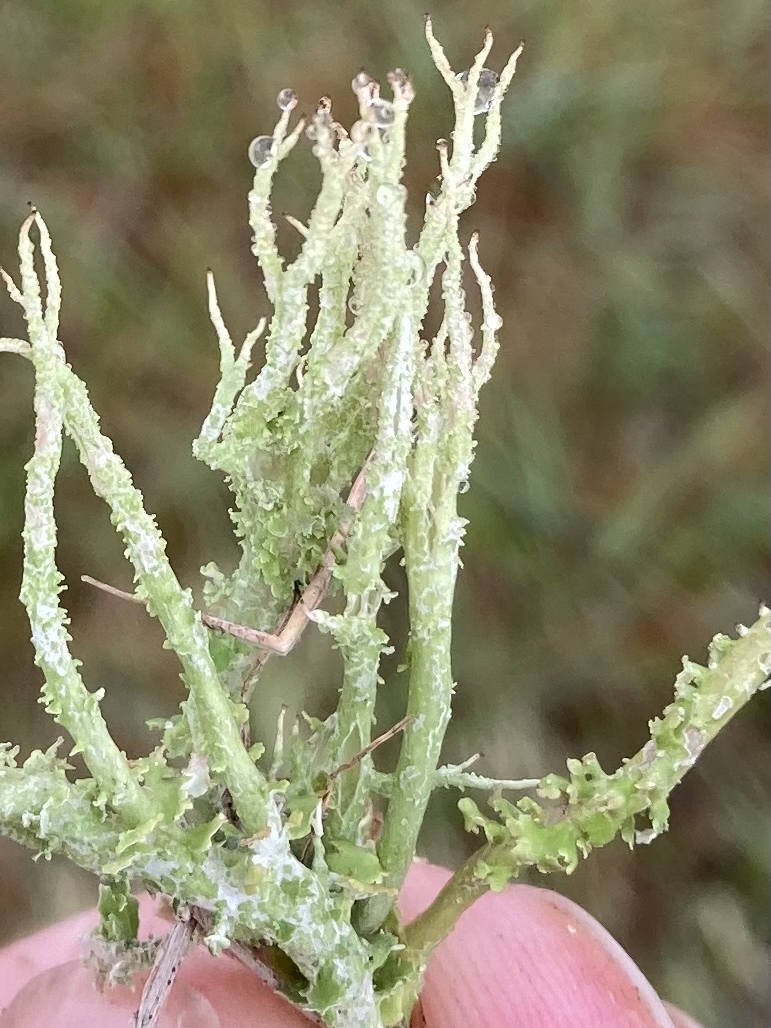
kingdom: Fungi
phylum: Ascomycota
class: Lecanoromycetes
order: Lecanorales
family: Cladoniaceae
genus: Cladonia
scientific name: Cladonia scabriuscula
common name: ru bægerlav
